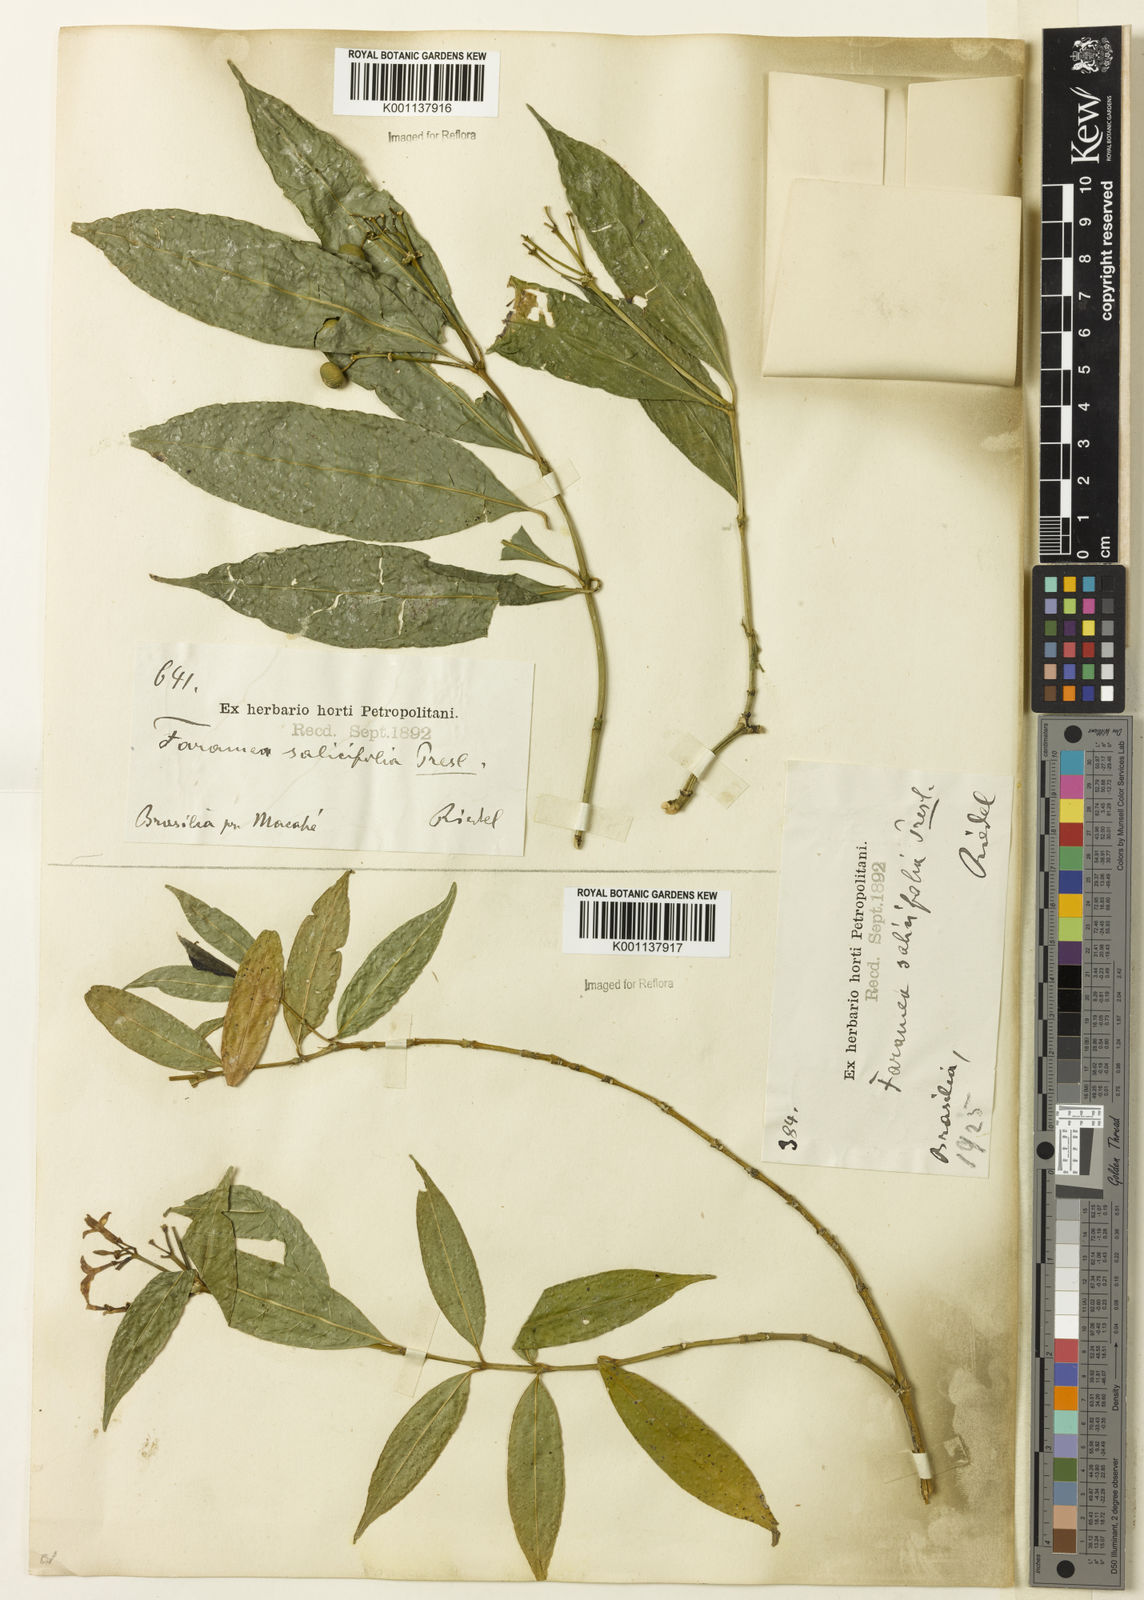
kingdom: Plantae
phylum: Tracheophyta
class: Magnoliopsida
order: Gentianales
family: Rubiaceae
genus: Faramea
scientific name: Faramea multiflora
